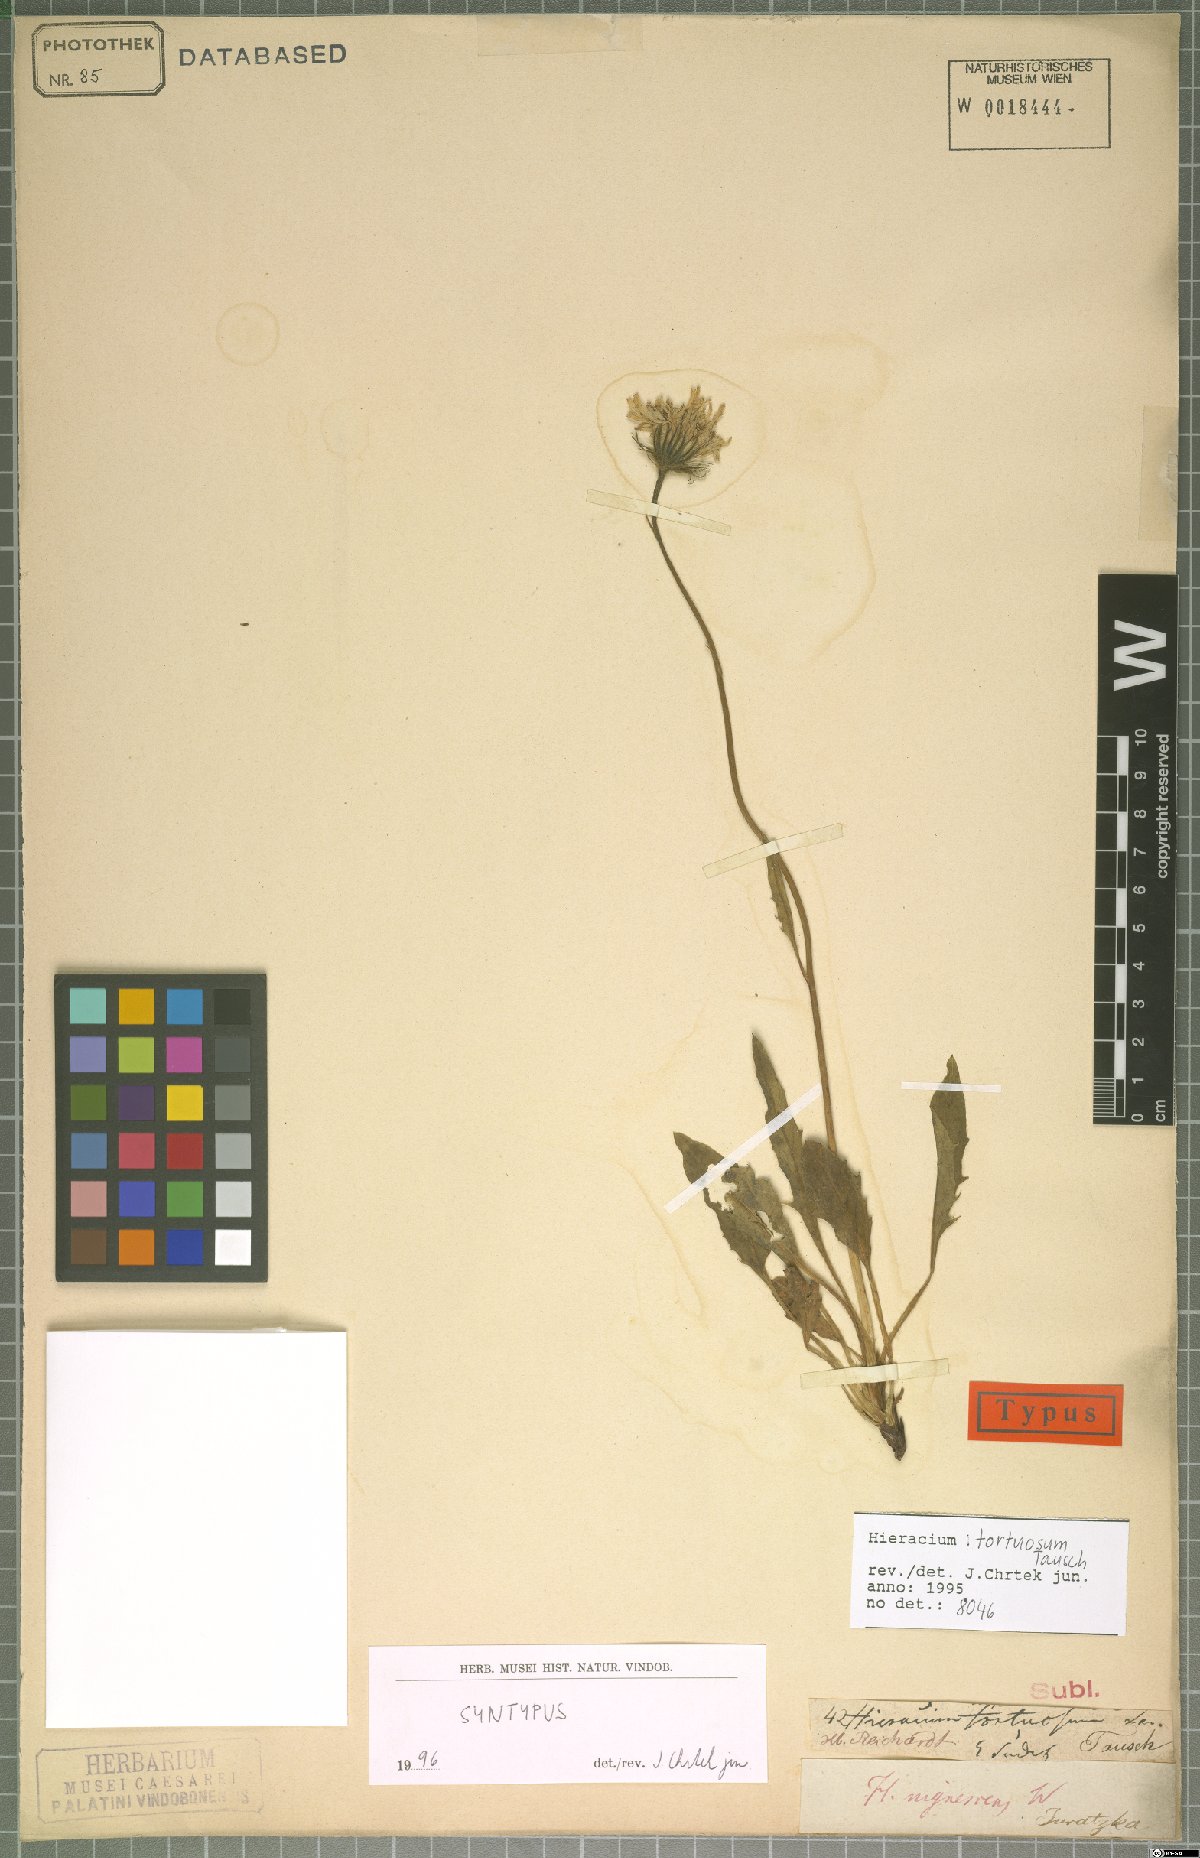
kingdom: Plantae
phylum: Tracheophyta
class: Magnoliopsida
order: Asterales
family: Asteraceae
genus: Hieracium
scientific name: Hieracium tortuosum
